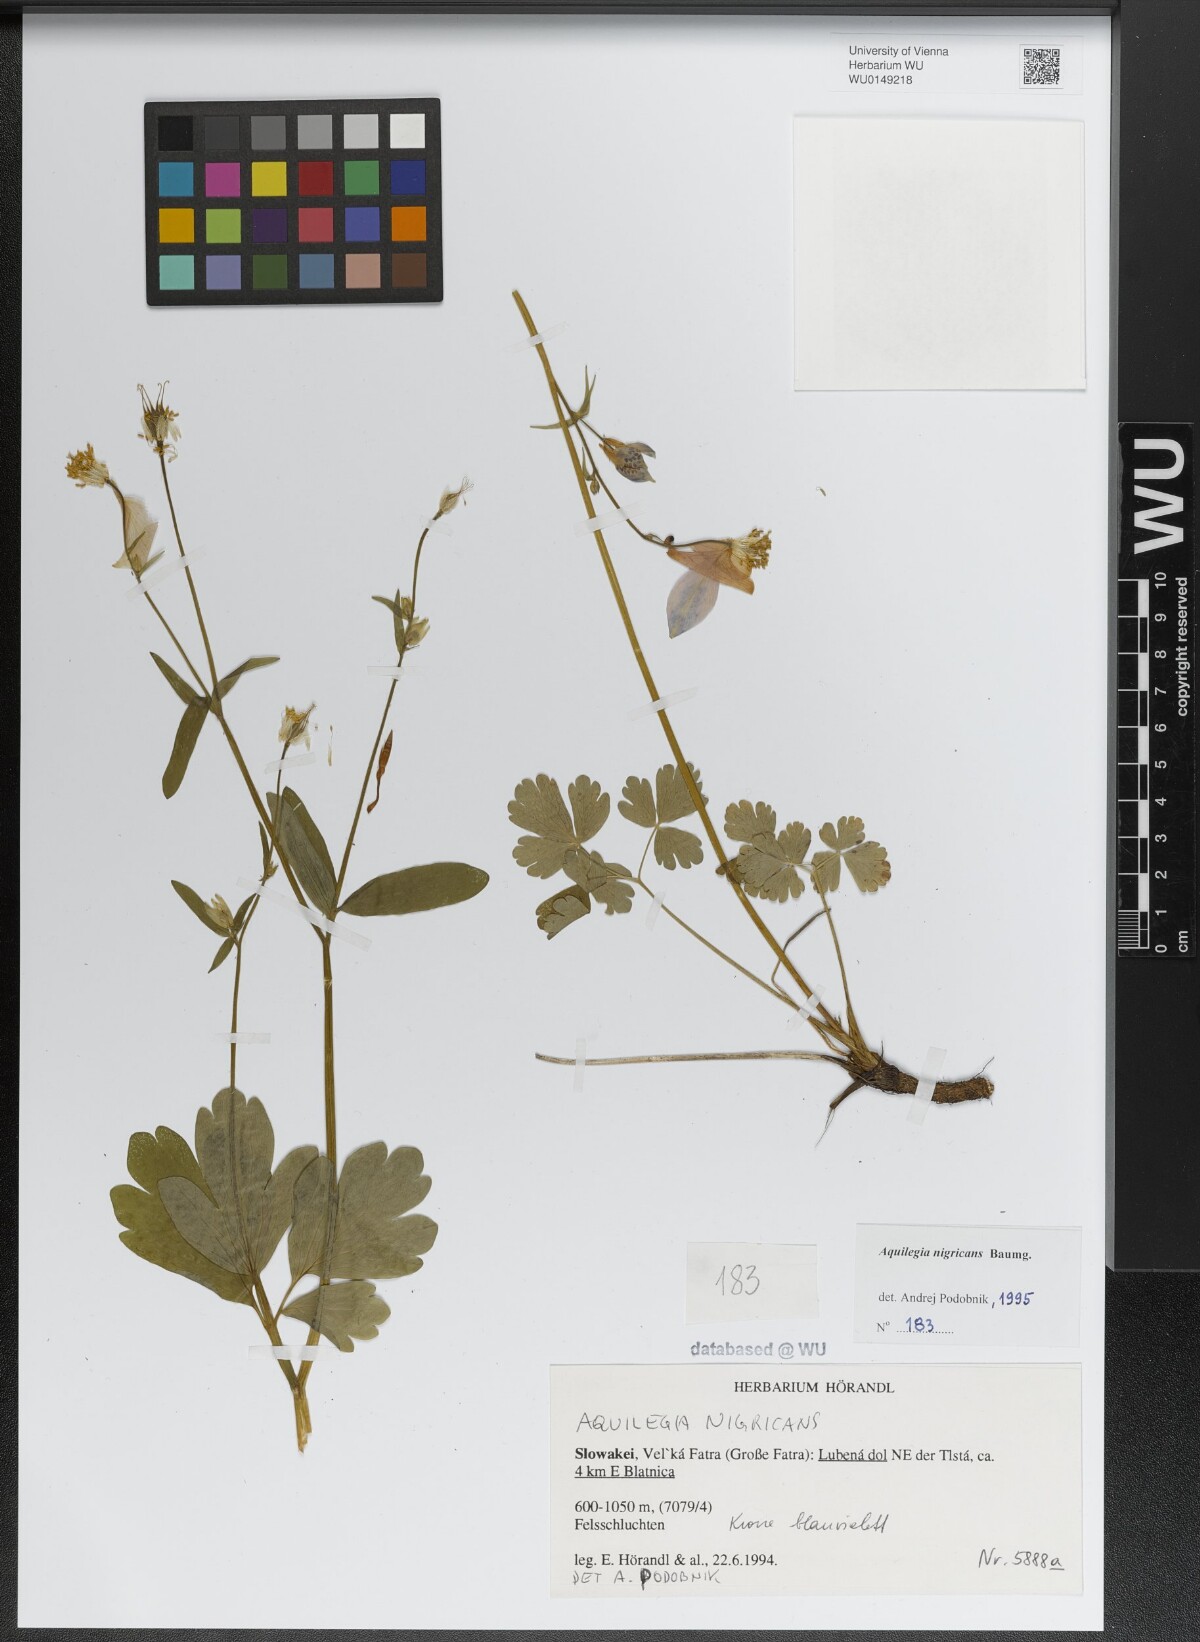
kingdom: Plantae
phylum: Tracheophyta
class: Magnoliopsida
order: Ranunculales
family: Ranunculaceae
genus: Aquilegia
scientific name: Aquilegia nigricans
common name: Bulgarian columbine
